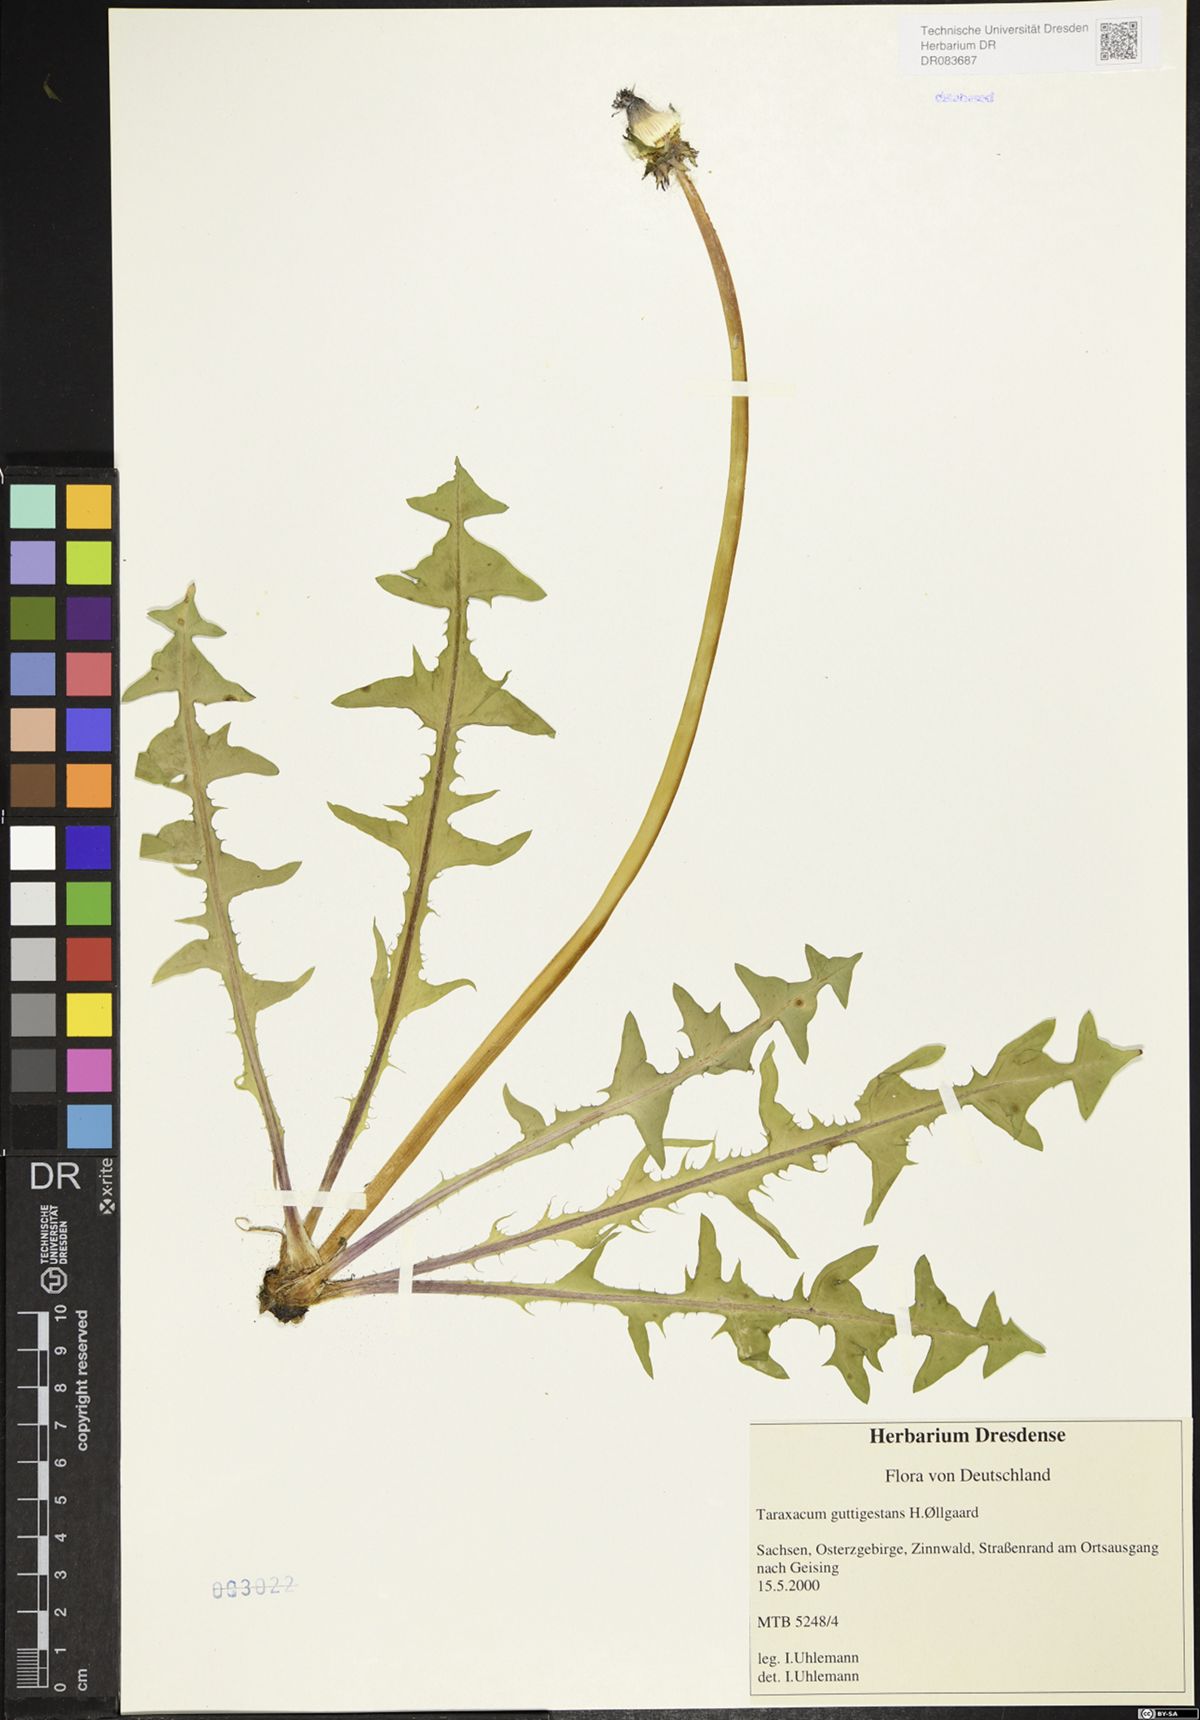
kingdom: Plantae
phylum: Tracheophyta
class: Magnoliopsida
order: Asterales
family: Asteraceae
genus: Taraxacum
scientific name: Taraxacum guttigestans
